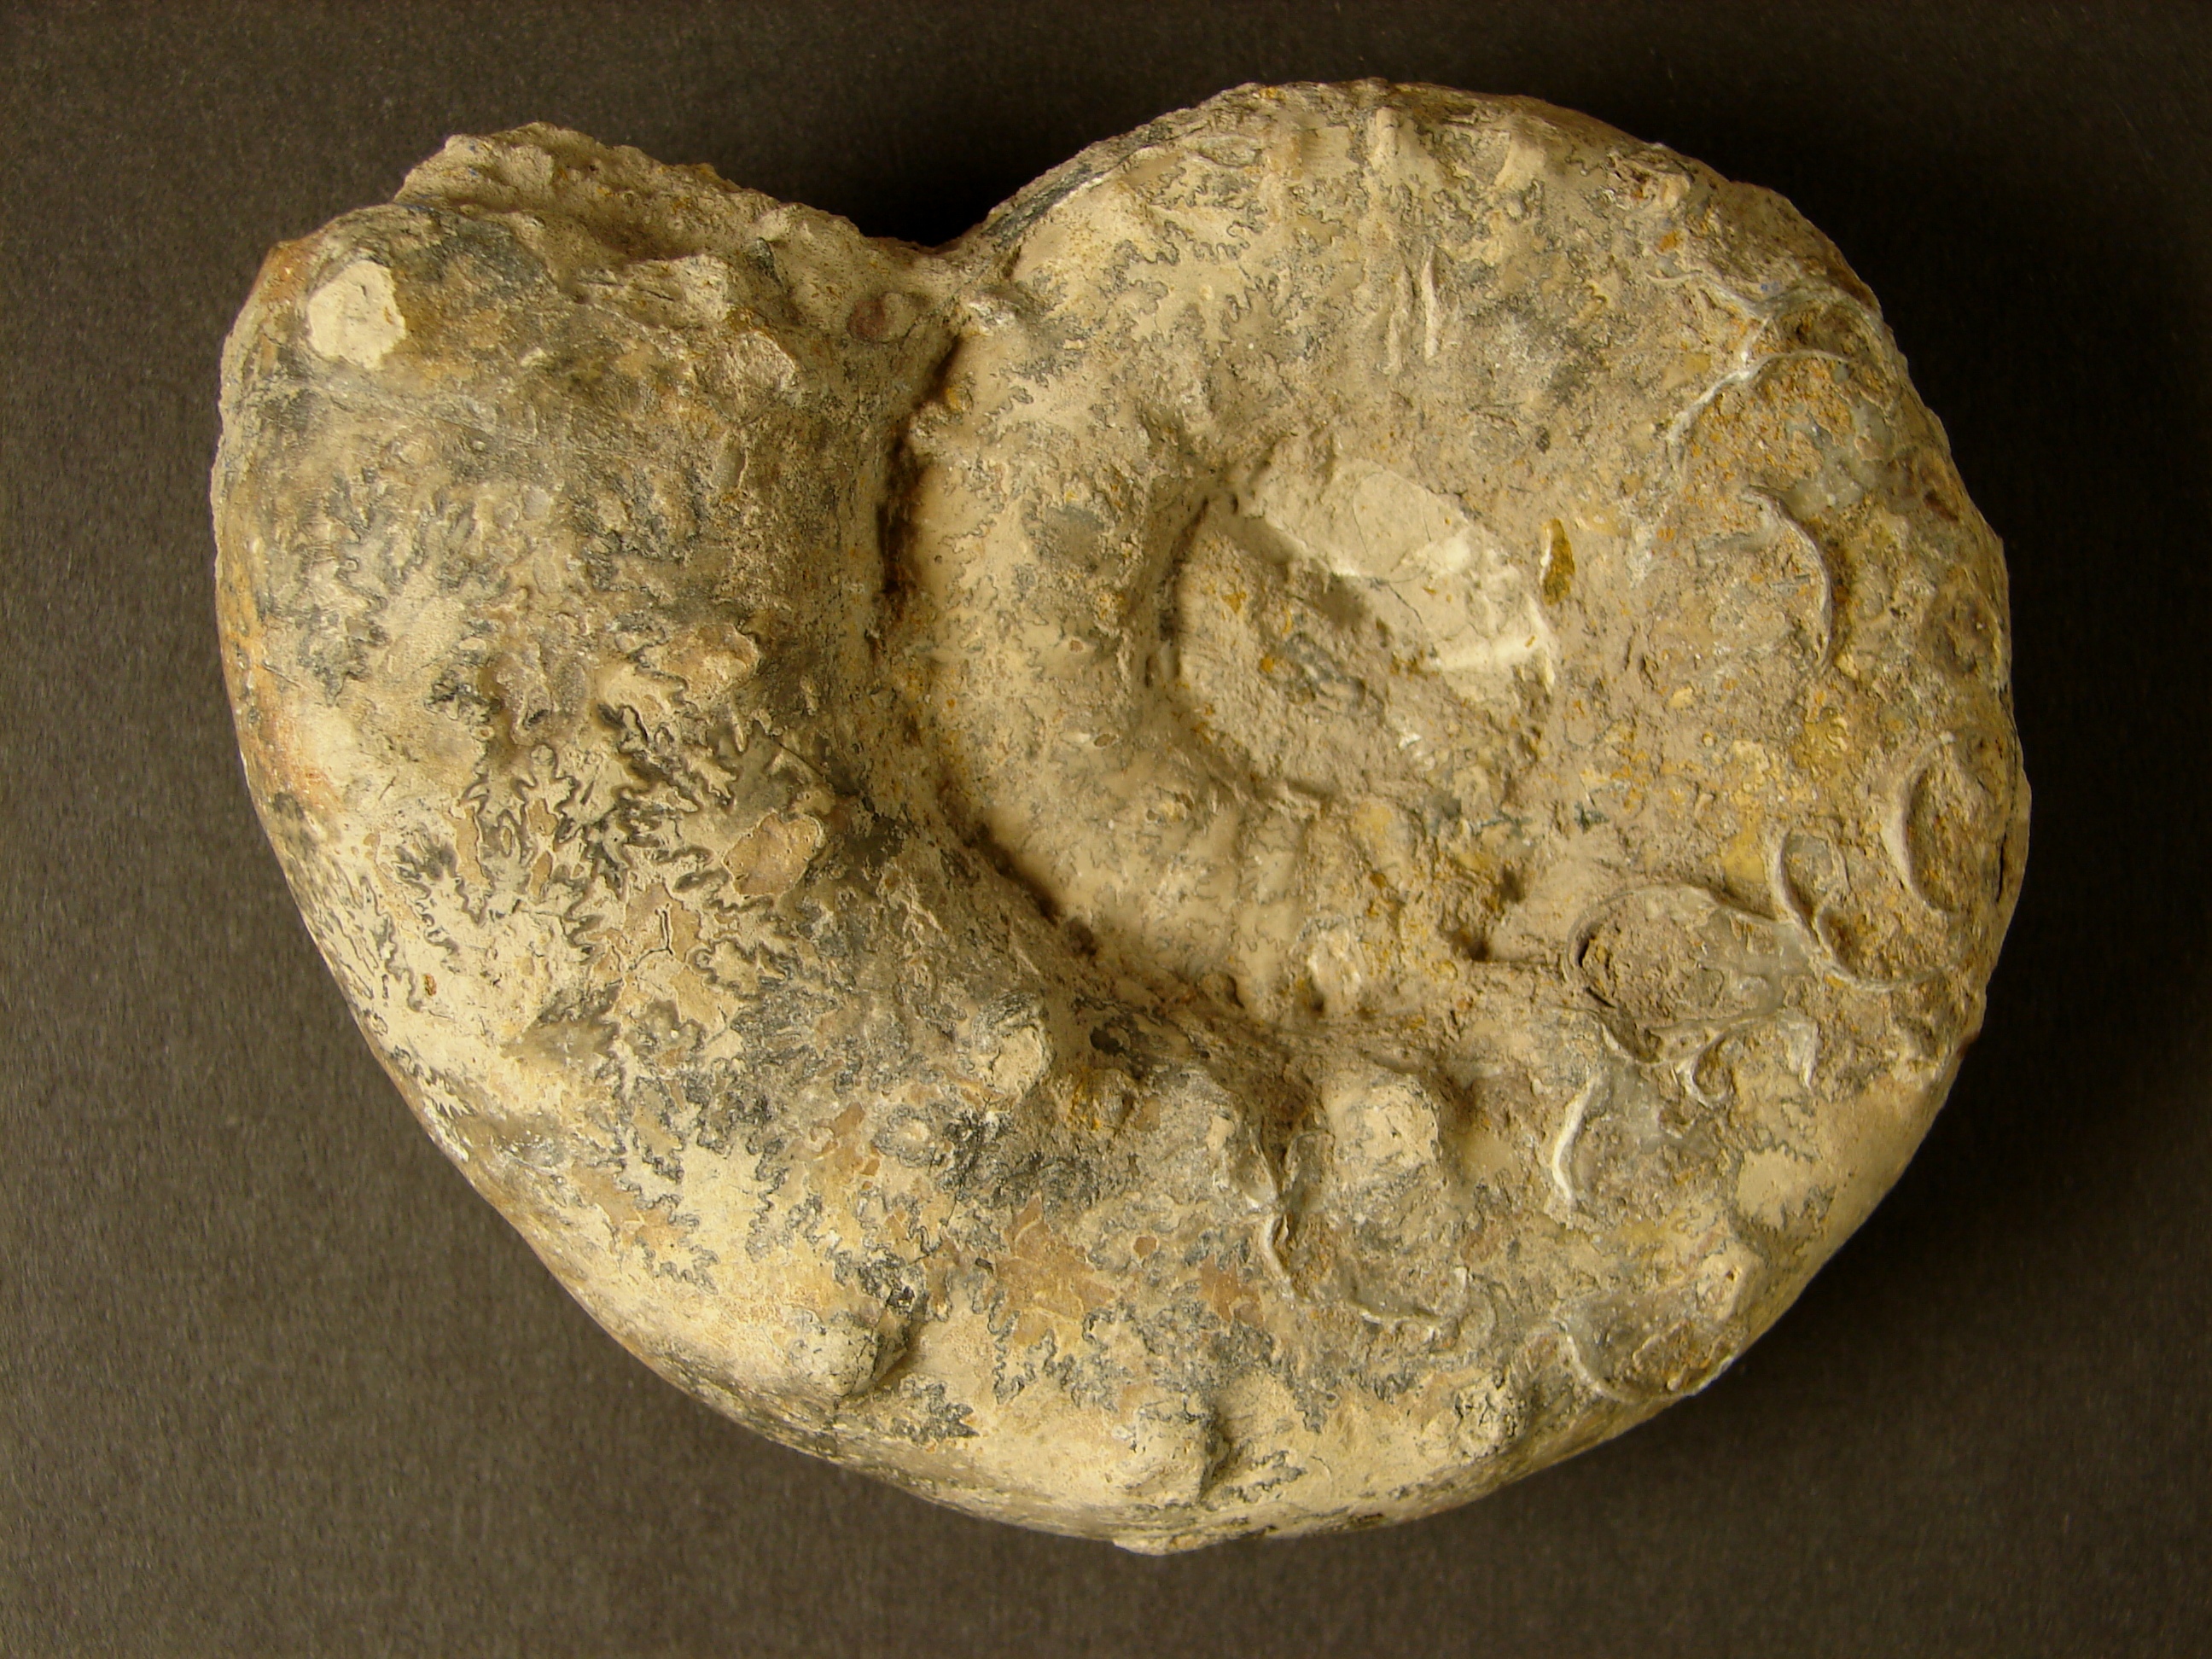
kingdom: Animalia
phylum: Mollusca
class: Cephalopoda
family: Aspidoceratidae
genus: Euaspidoceras
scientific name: Euaspidoceras douvillei
